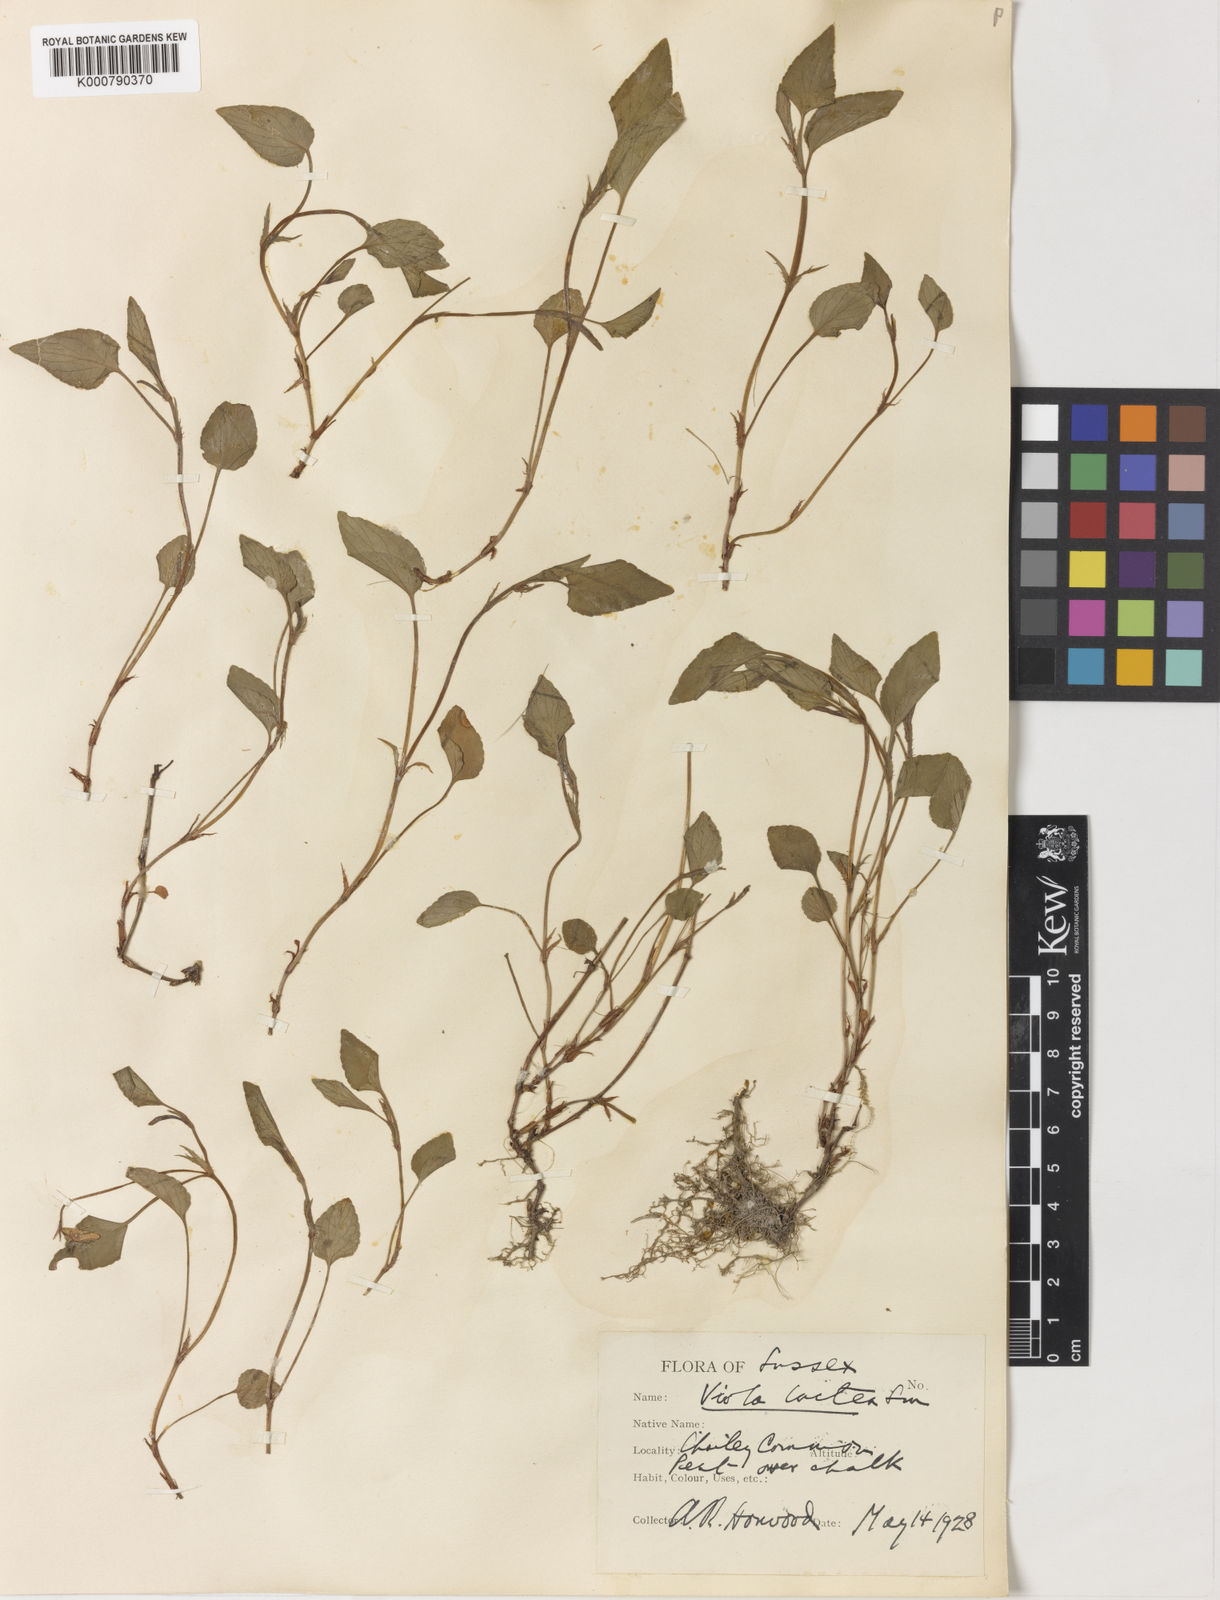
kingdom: Plantae
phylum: Tracheophyta
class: Magnoliopsida
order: Malpighiales
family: Violaceae
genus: Viola
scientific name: Viola lactea
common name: Pale dog-violet
